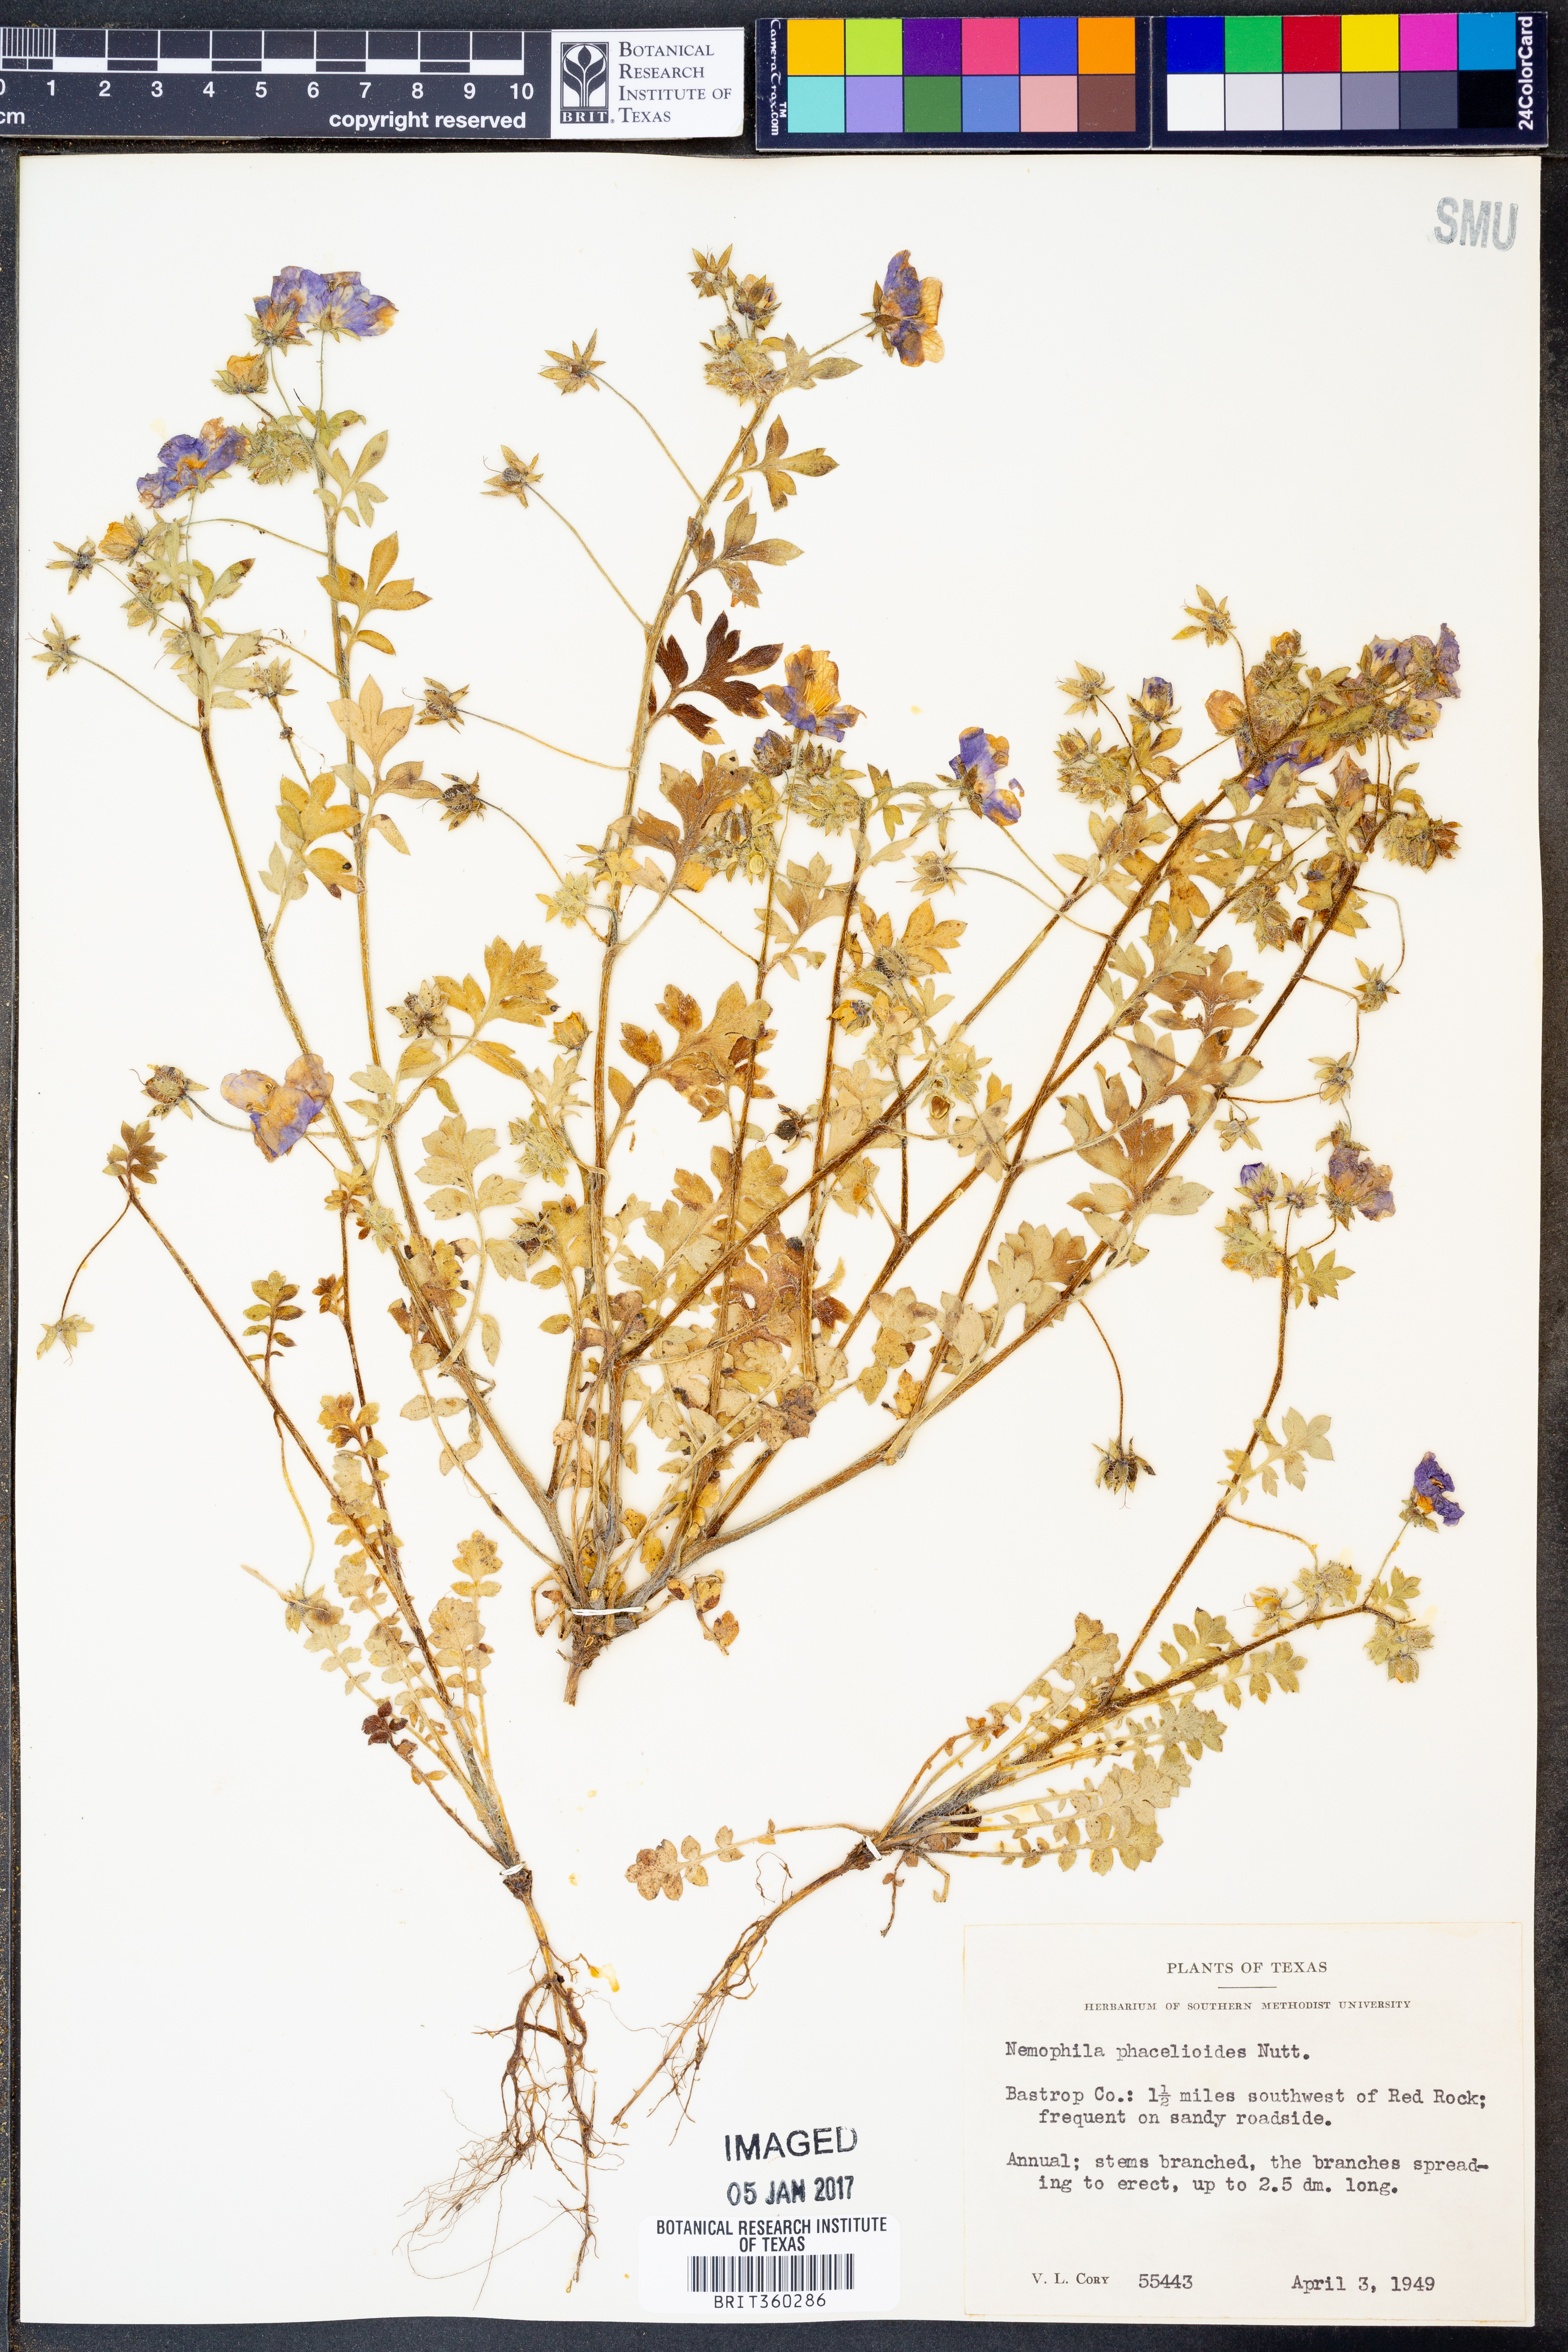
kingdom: Plantae
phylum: Tracheophyta
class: Magnoliopsida
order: Boraginales
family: Hydrophyllaceae
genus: Nemophila
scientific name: Nemophila phacelioides
